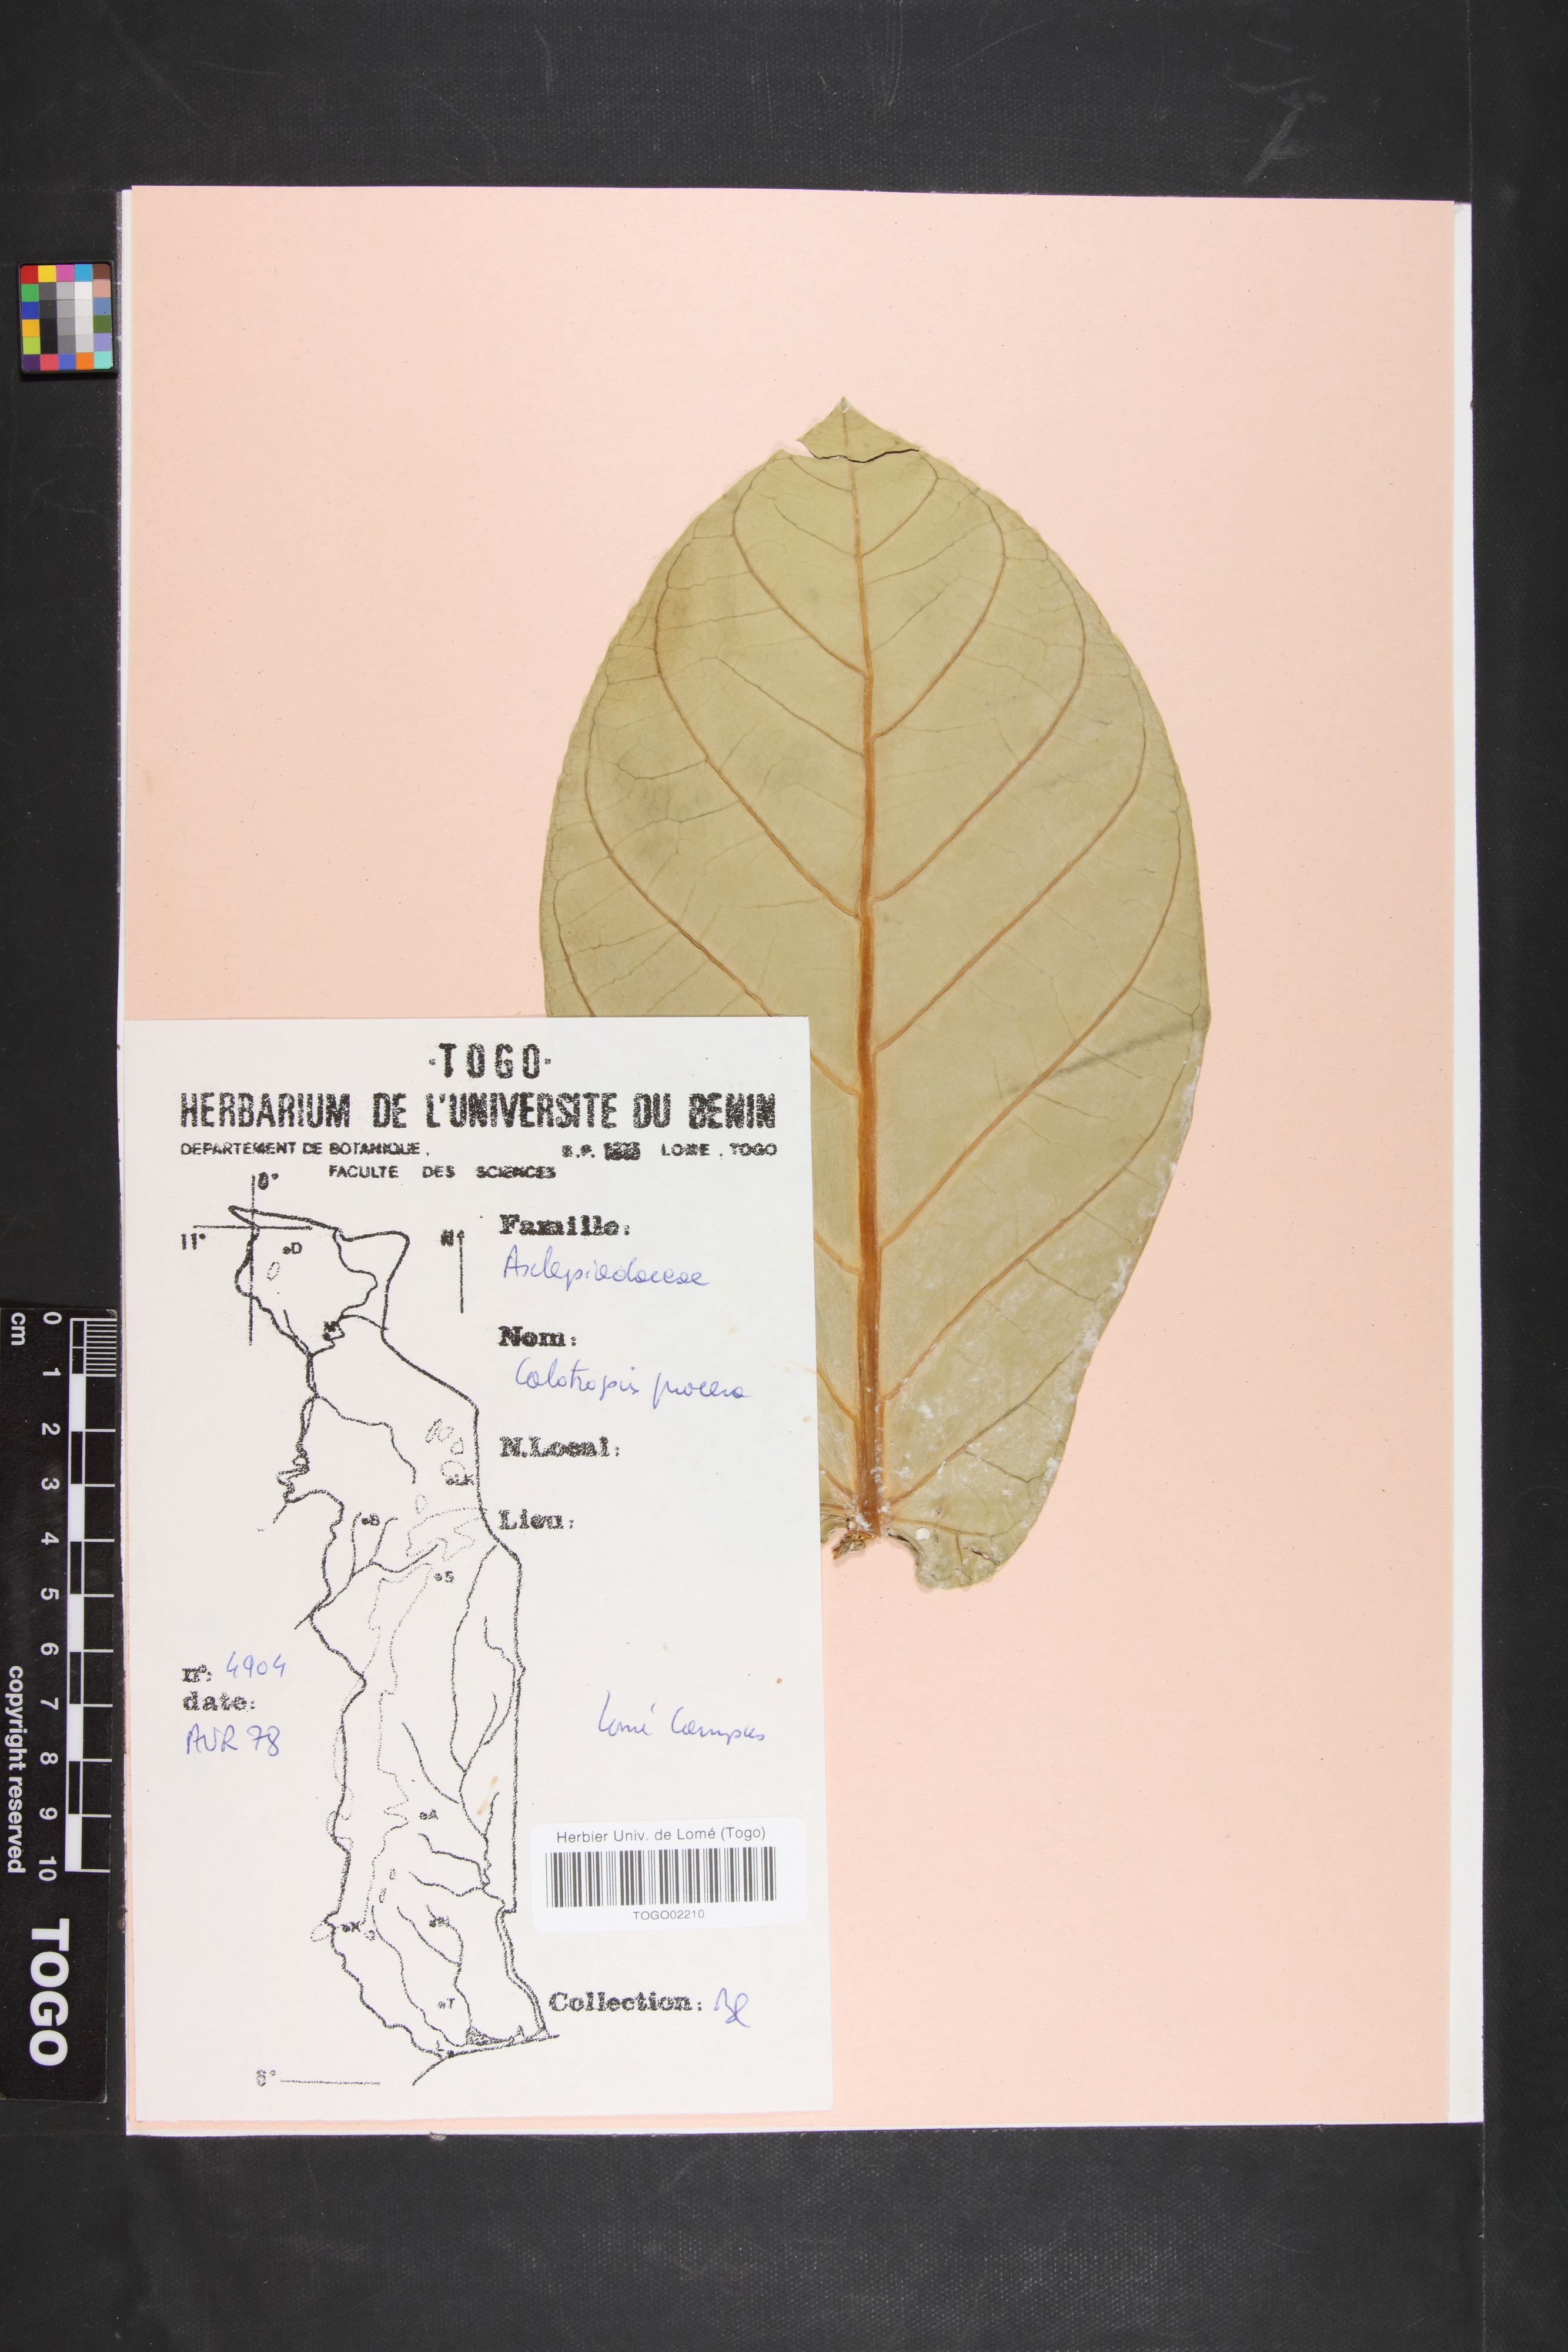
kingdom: Plantae
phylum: Tracheophyta
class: Magnoliopsida
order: Gentianales
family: Apocynaceae
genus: Calotropis
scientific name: Calotropis procera
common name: Roostertree
